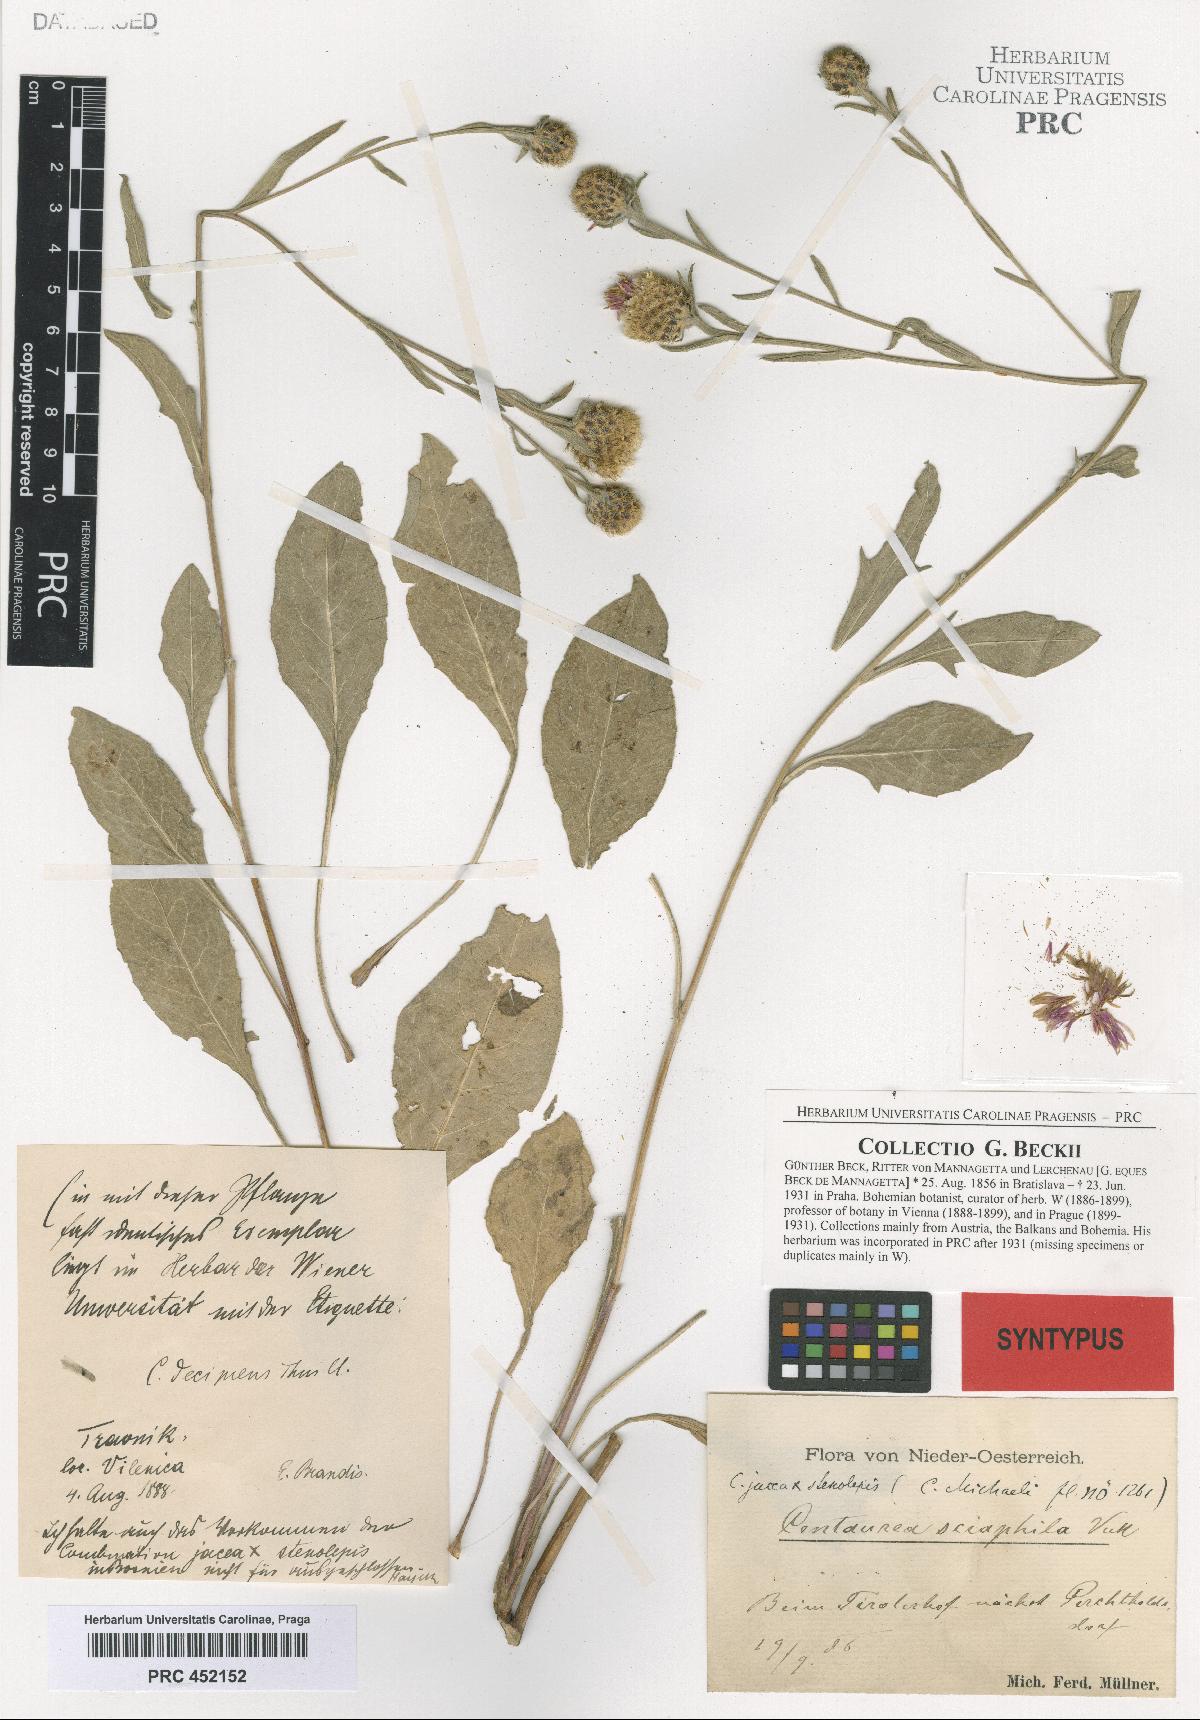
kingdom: Plantae
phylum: Tracheophyta
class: Magnoliopsida
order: Asterales
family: Asteraceae
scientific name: Asteraceae
